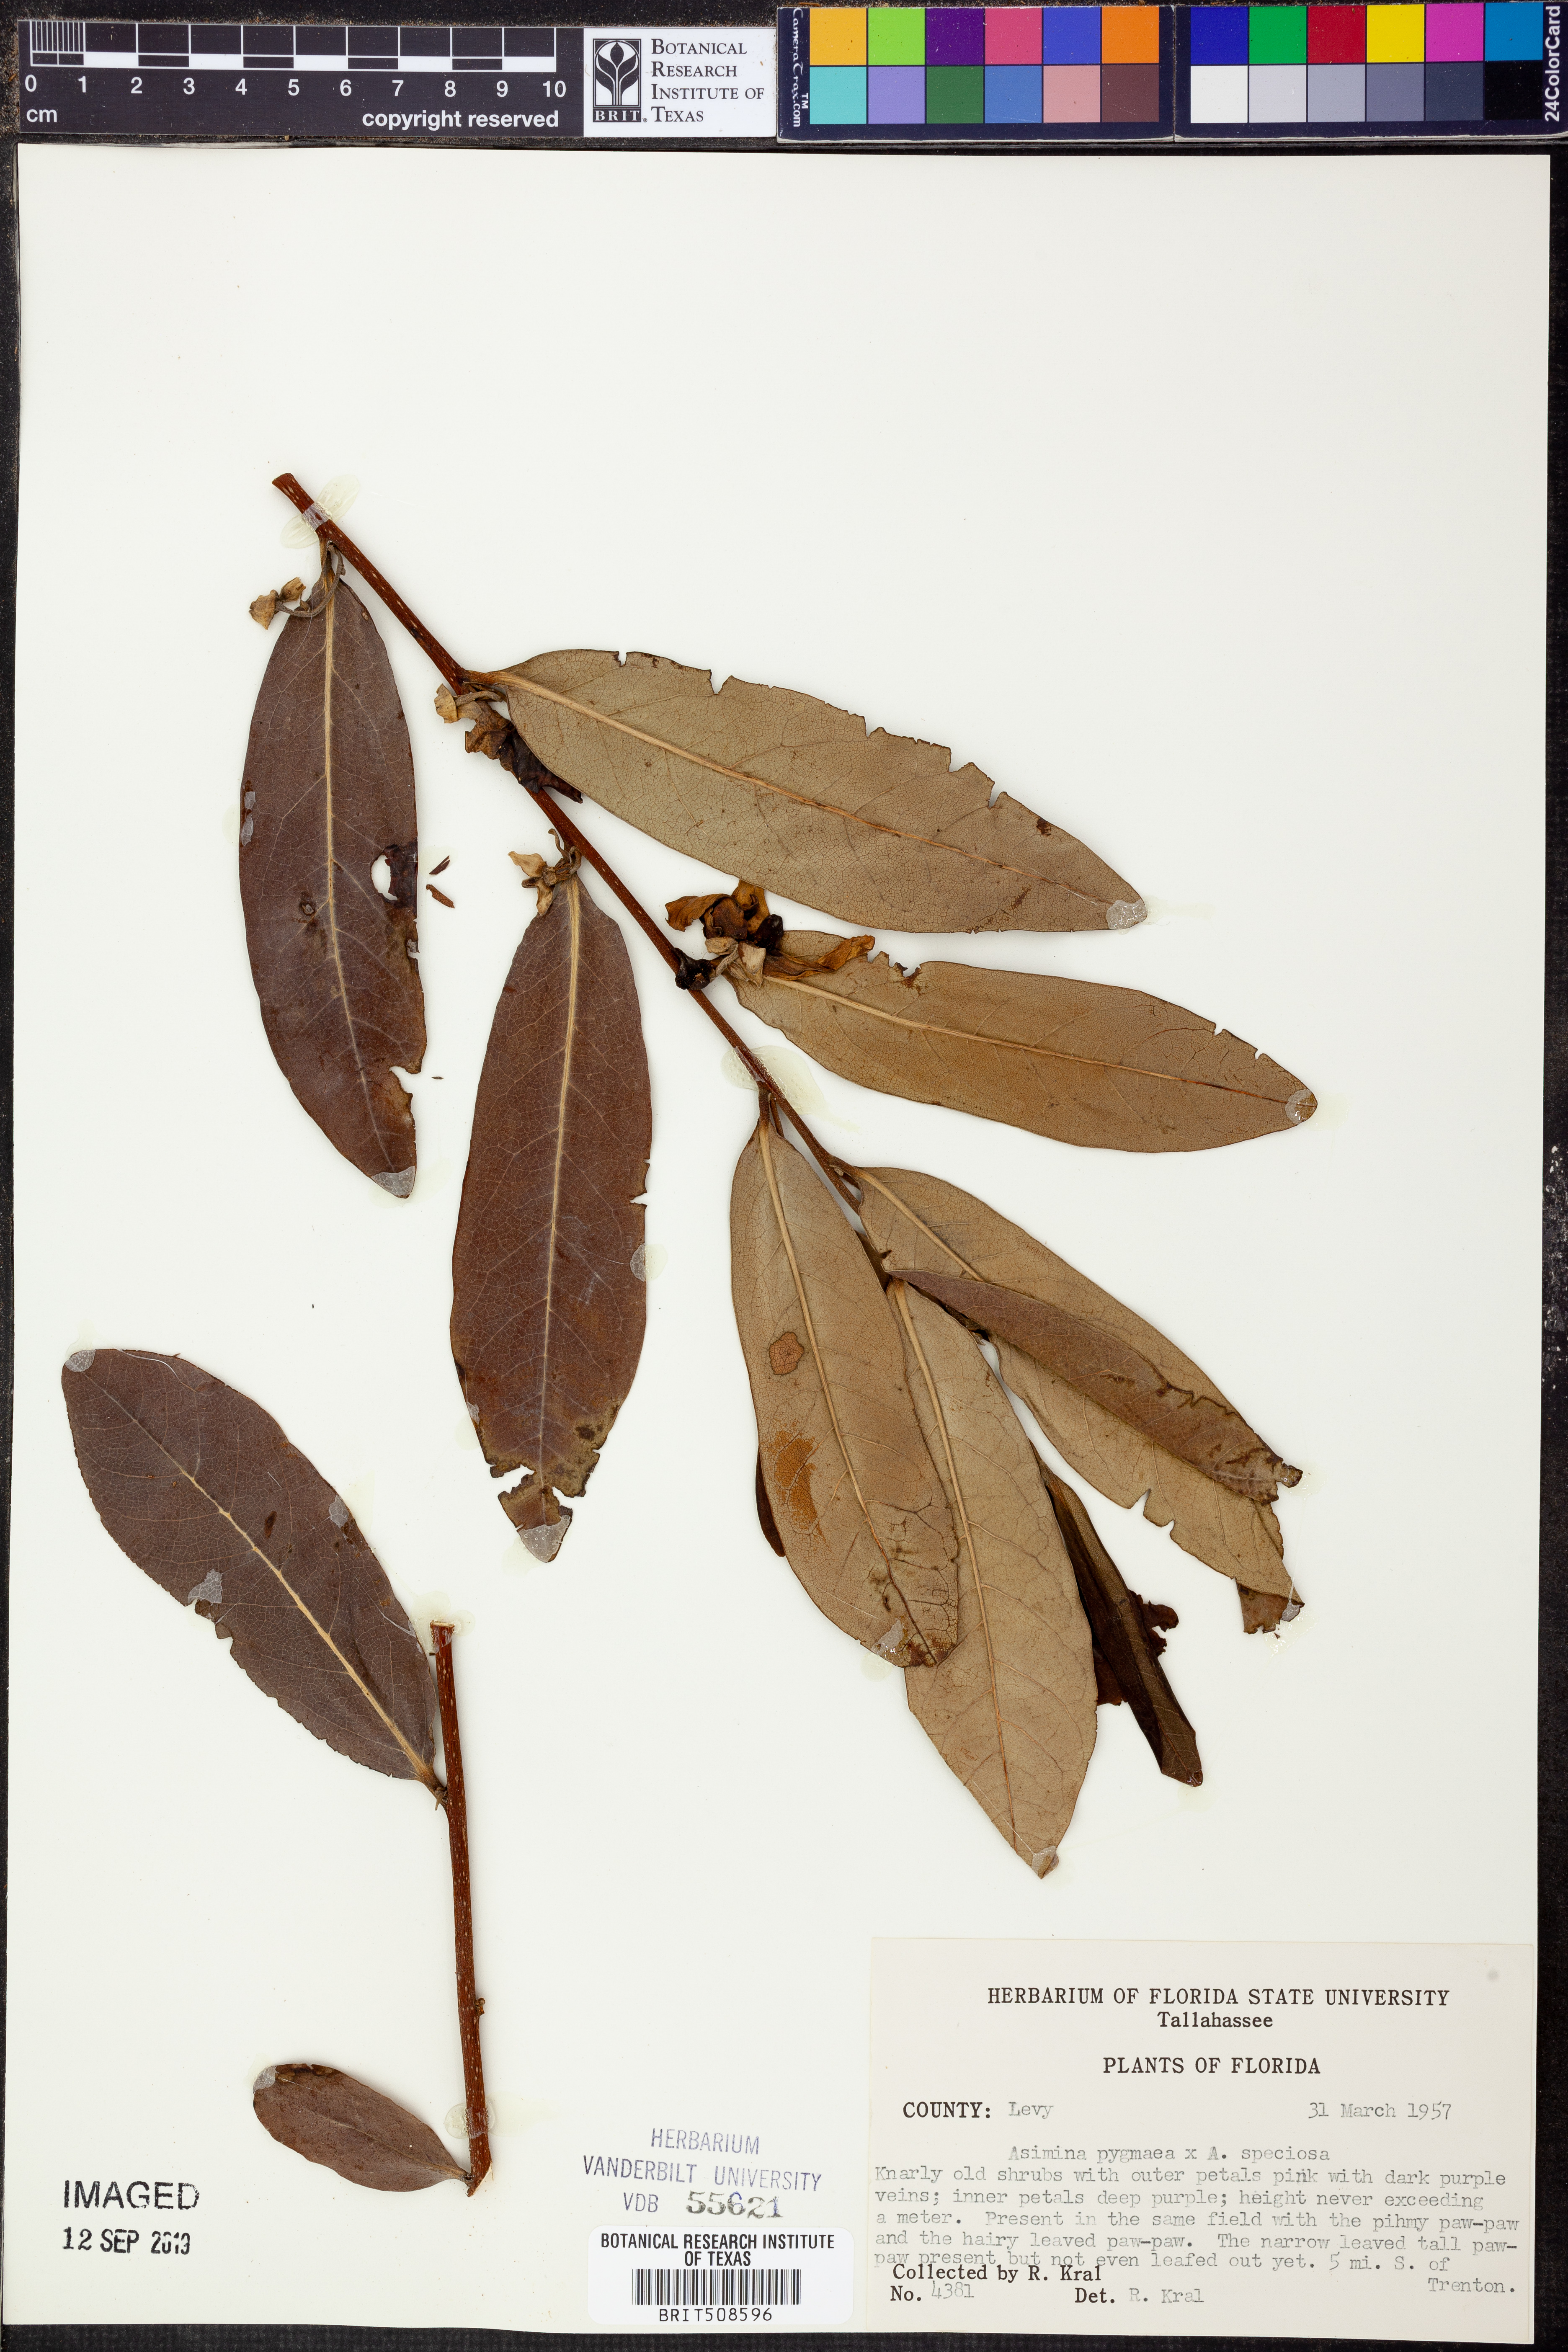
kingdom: Plantae
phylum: Tracheophyta
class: Magnoliopsida
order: Magnoliales
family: Annonaceae
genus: Asimina
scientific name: Asimina pygmaea
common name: Dwarf pawpaw
